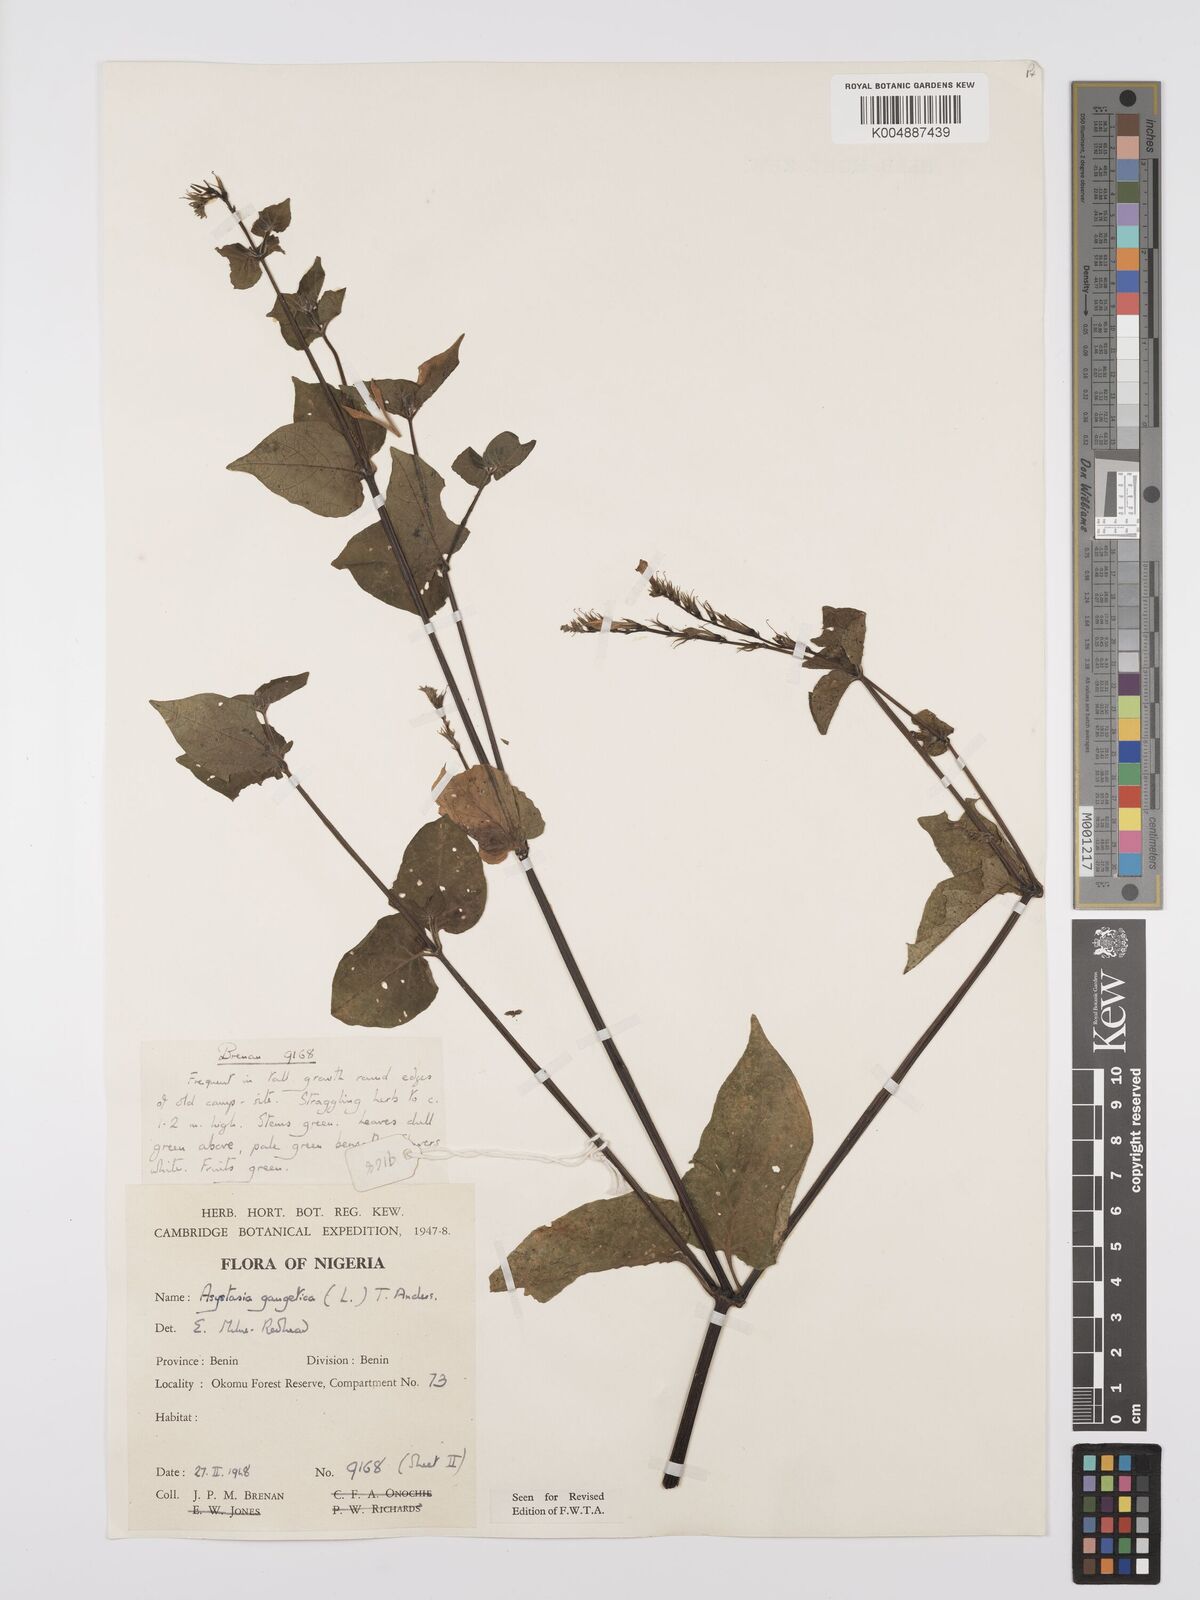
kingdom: Plantae
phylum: Tracheophyta
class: Magnoliopsida
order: Lamiales
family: Acanthaceae
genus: Asystasia
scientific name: Asystasia gangetica
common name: Chinese violet
